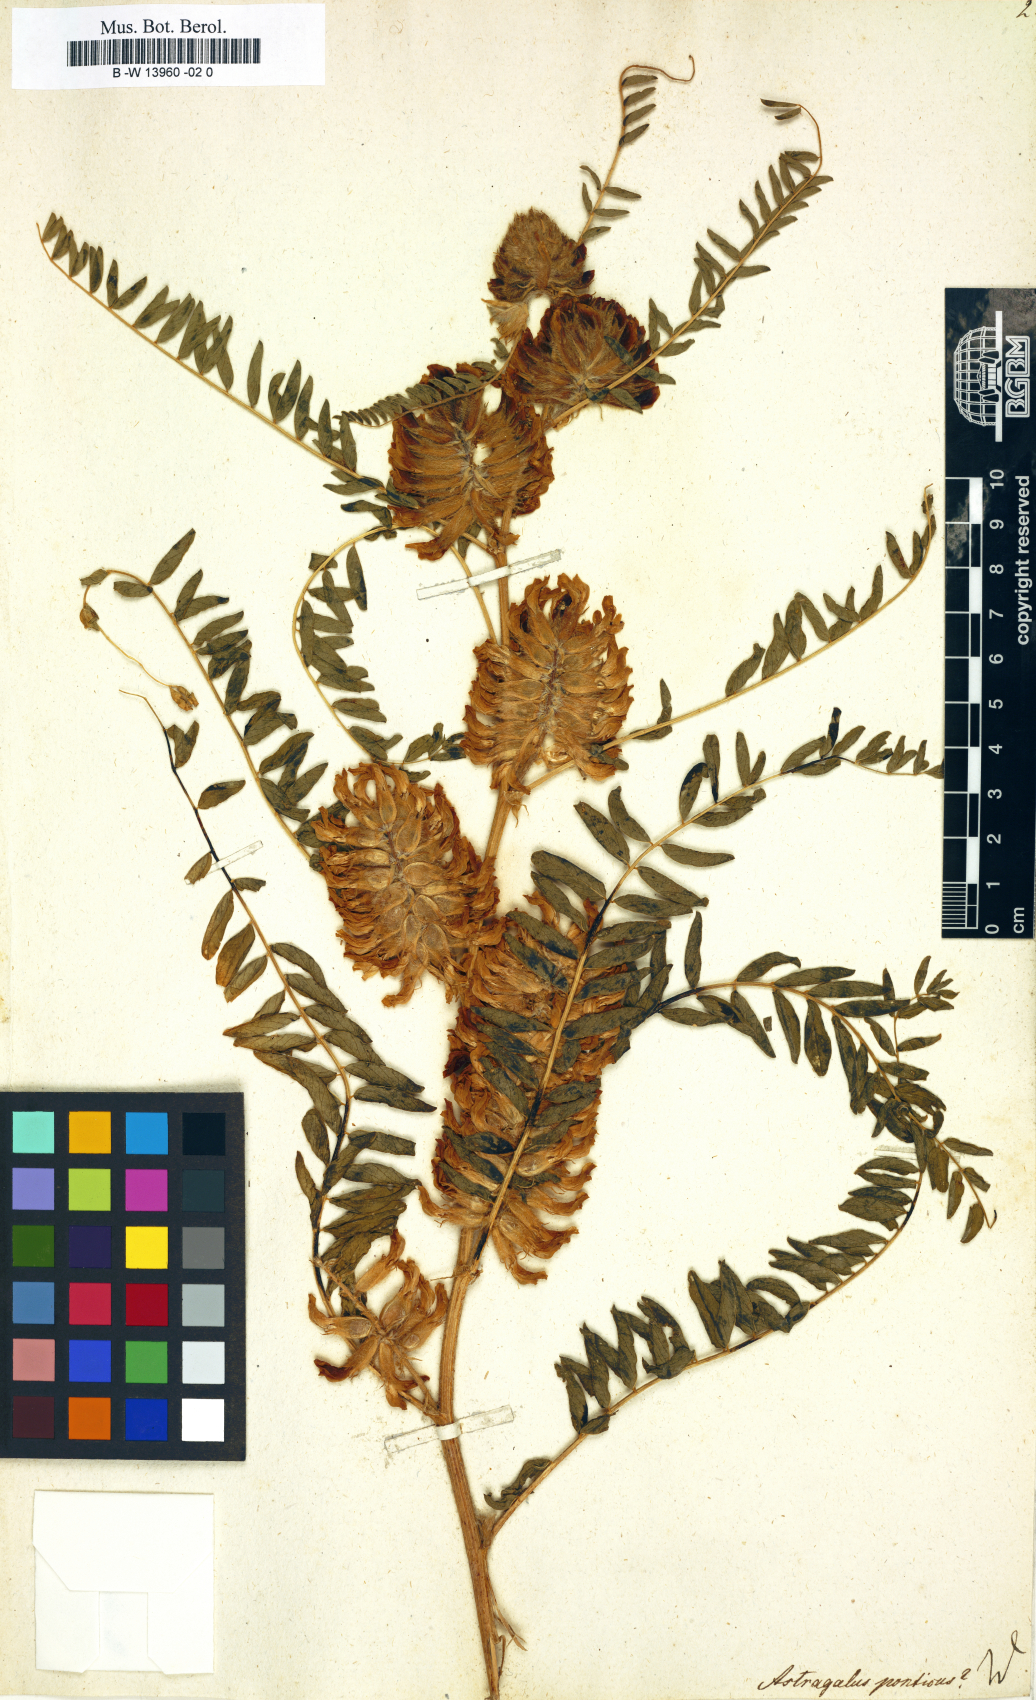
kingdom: Plantae
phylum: Tracheophyta
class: Magnoliopsida
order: Fabales
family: Fabaceae
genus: Astragalus
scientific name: Astragalus ponticus
